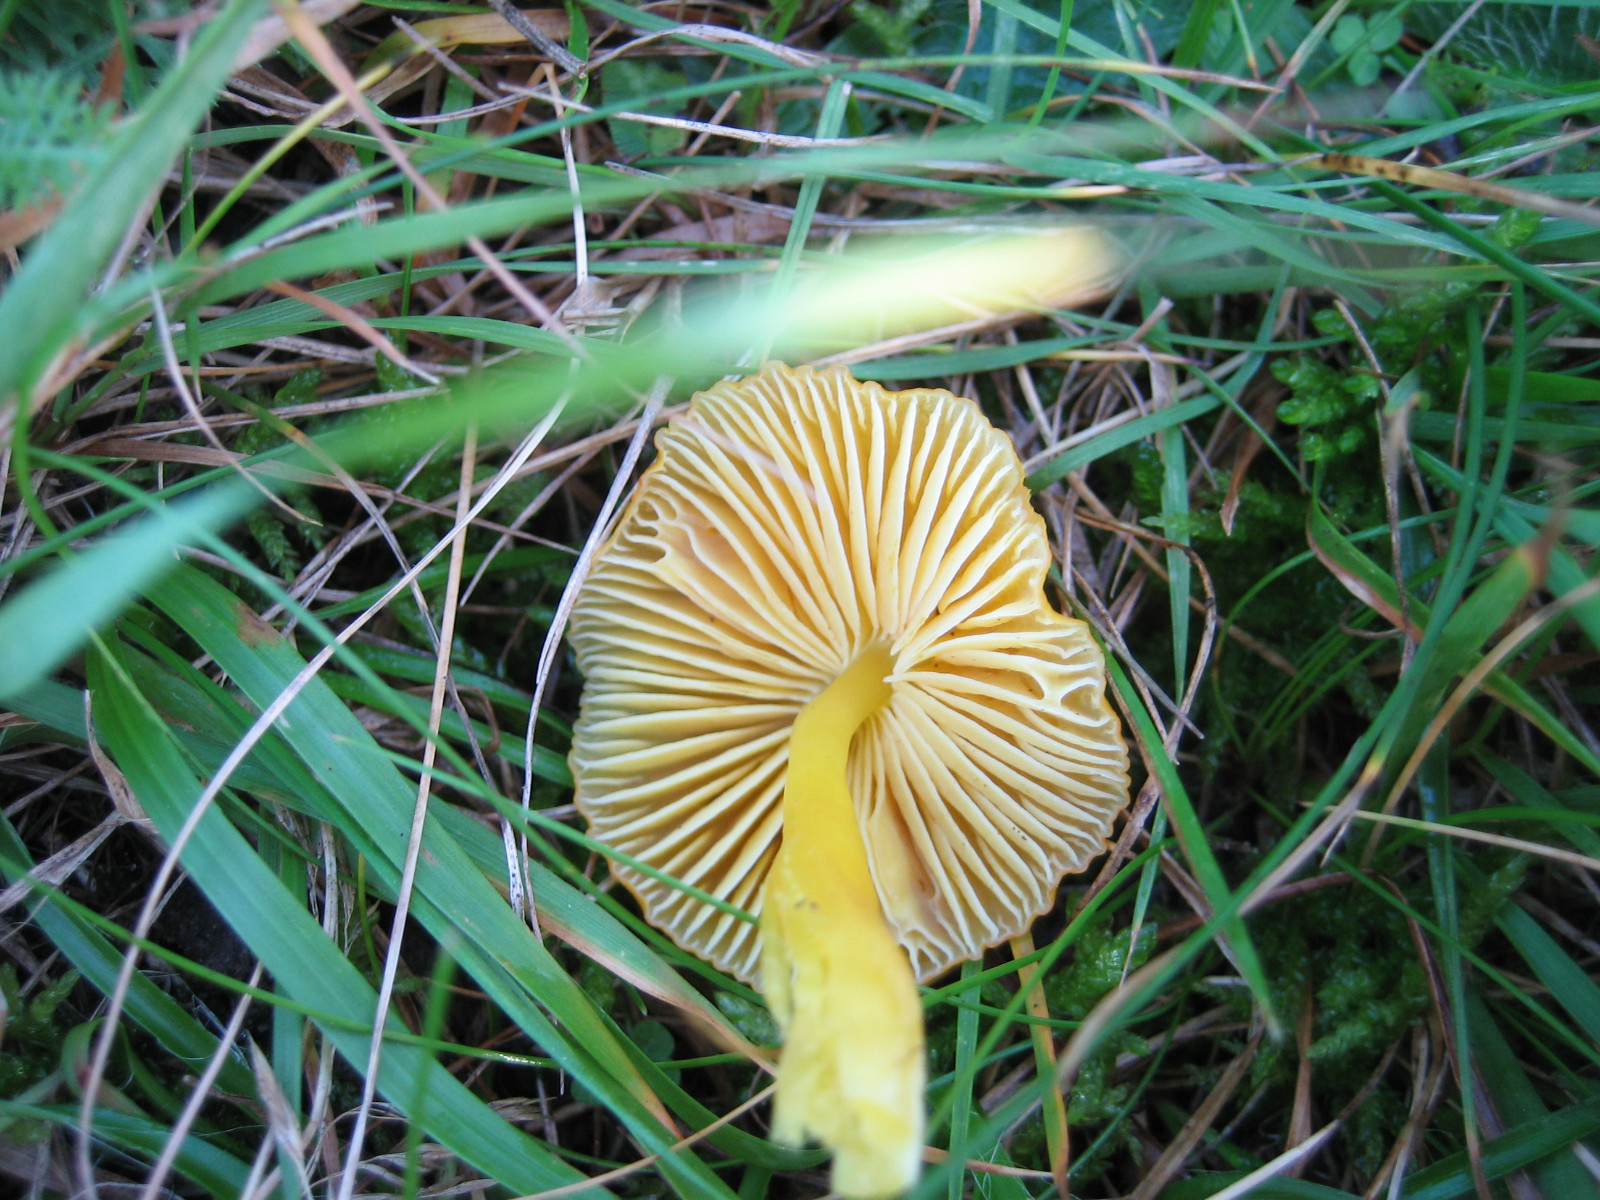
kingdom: Fungi
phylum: Basidiomycota
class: Agaricomycetes
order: Agaricales
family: Hygrophoraceae
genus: Hygrocybe
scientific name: Hygrocybe ceracea
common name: voksgul vokshat
